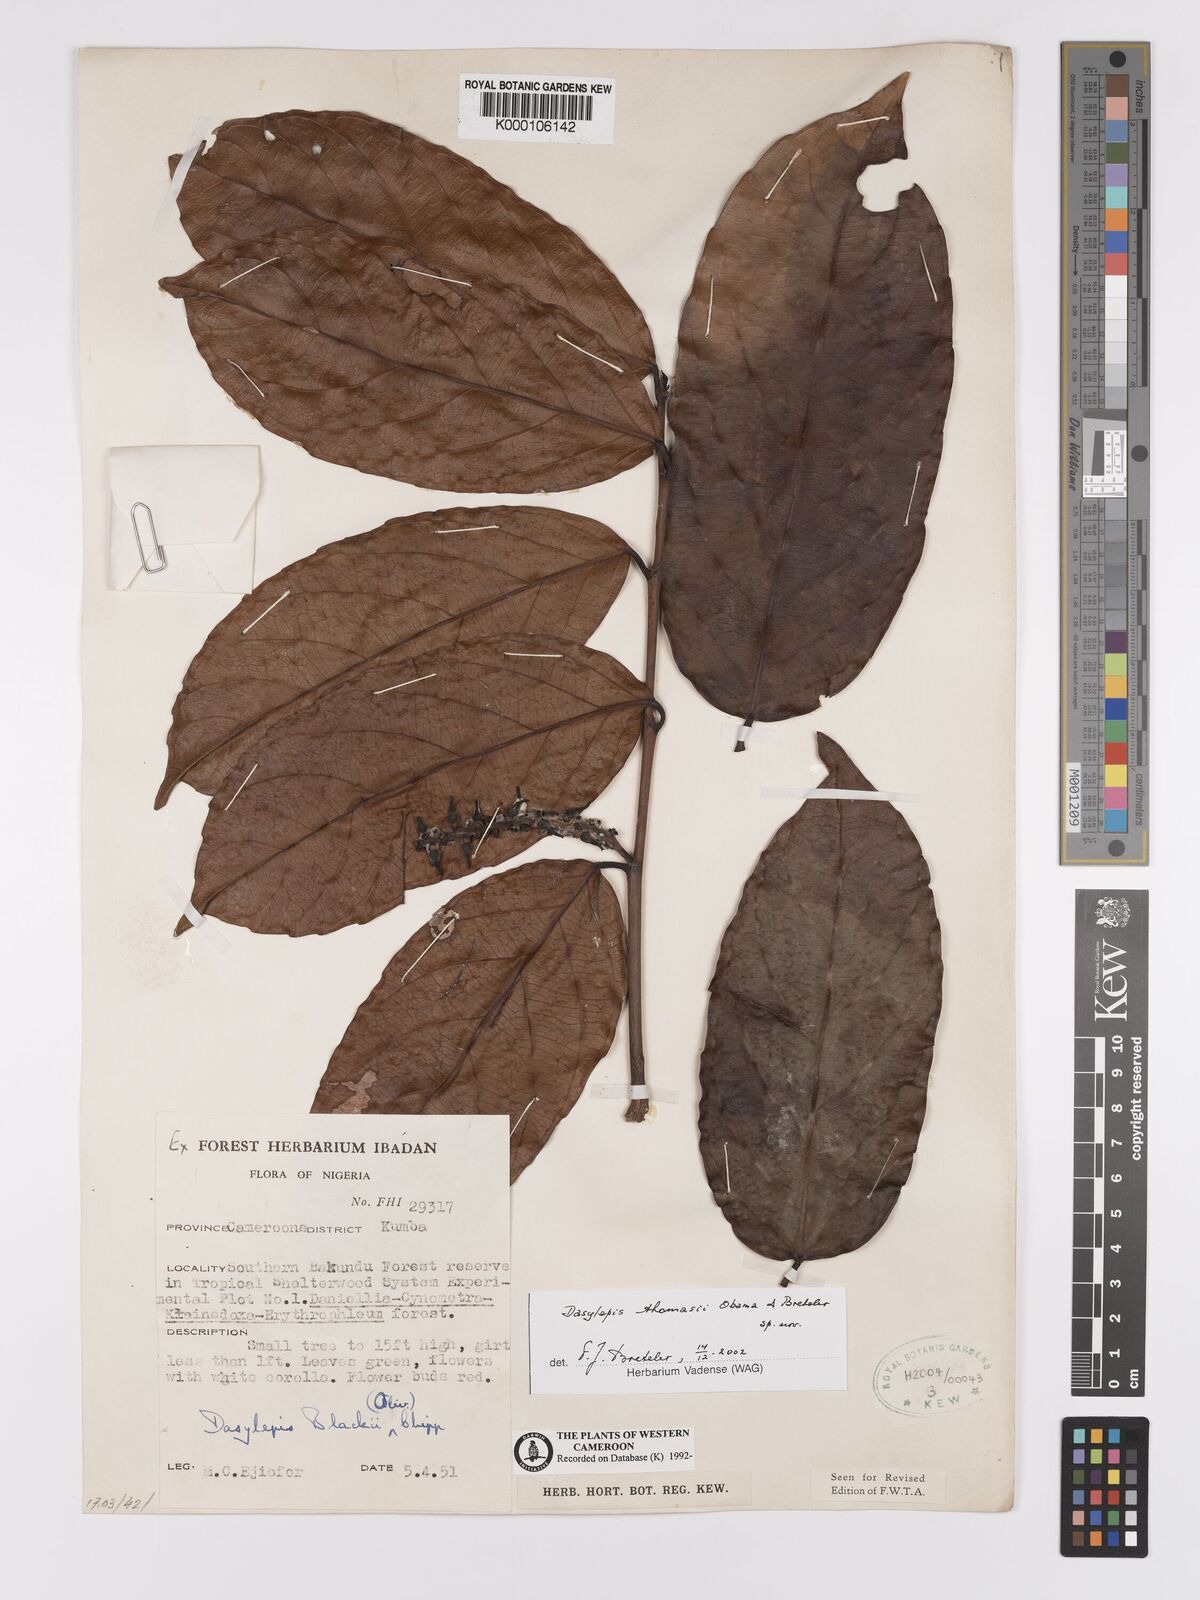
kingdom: Plantae
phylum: Tracheophyta
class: Magnoliopsida
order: Malpighiales
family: Achariaceae
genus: Dasylepis
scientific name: Dasylepis blackii
